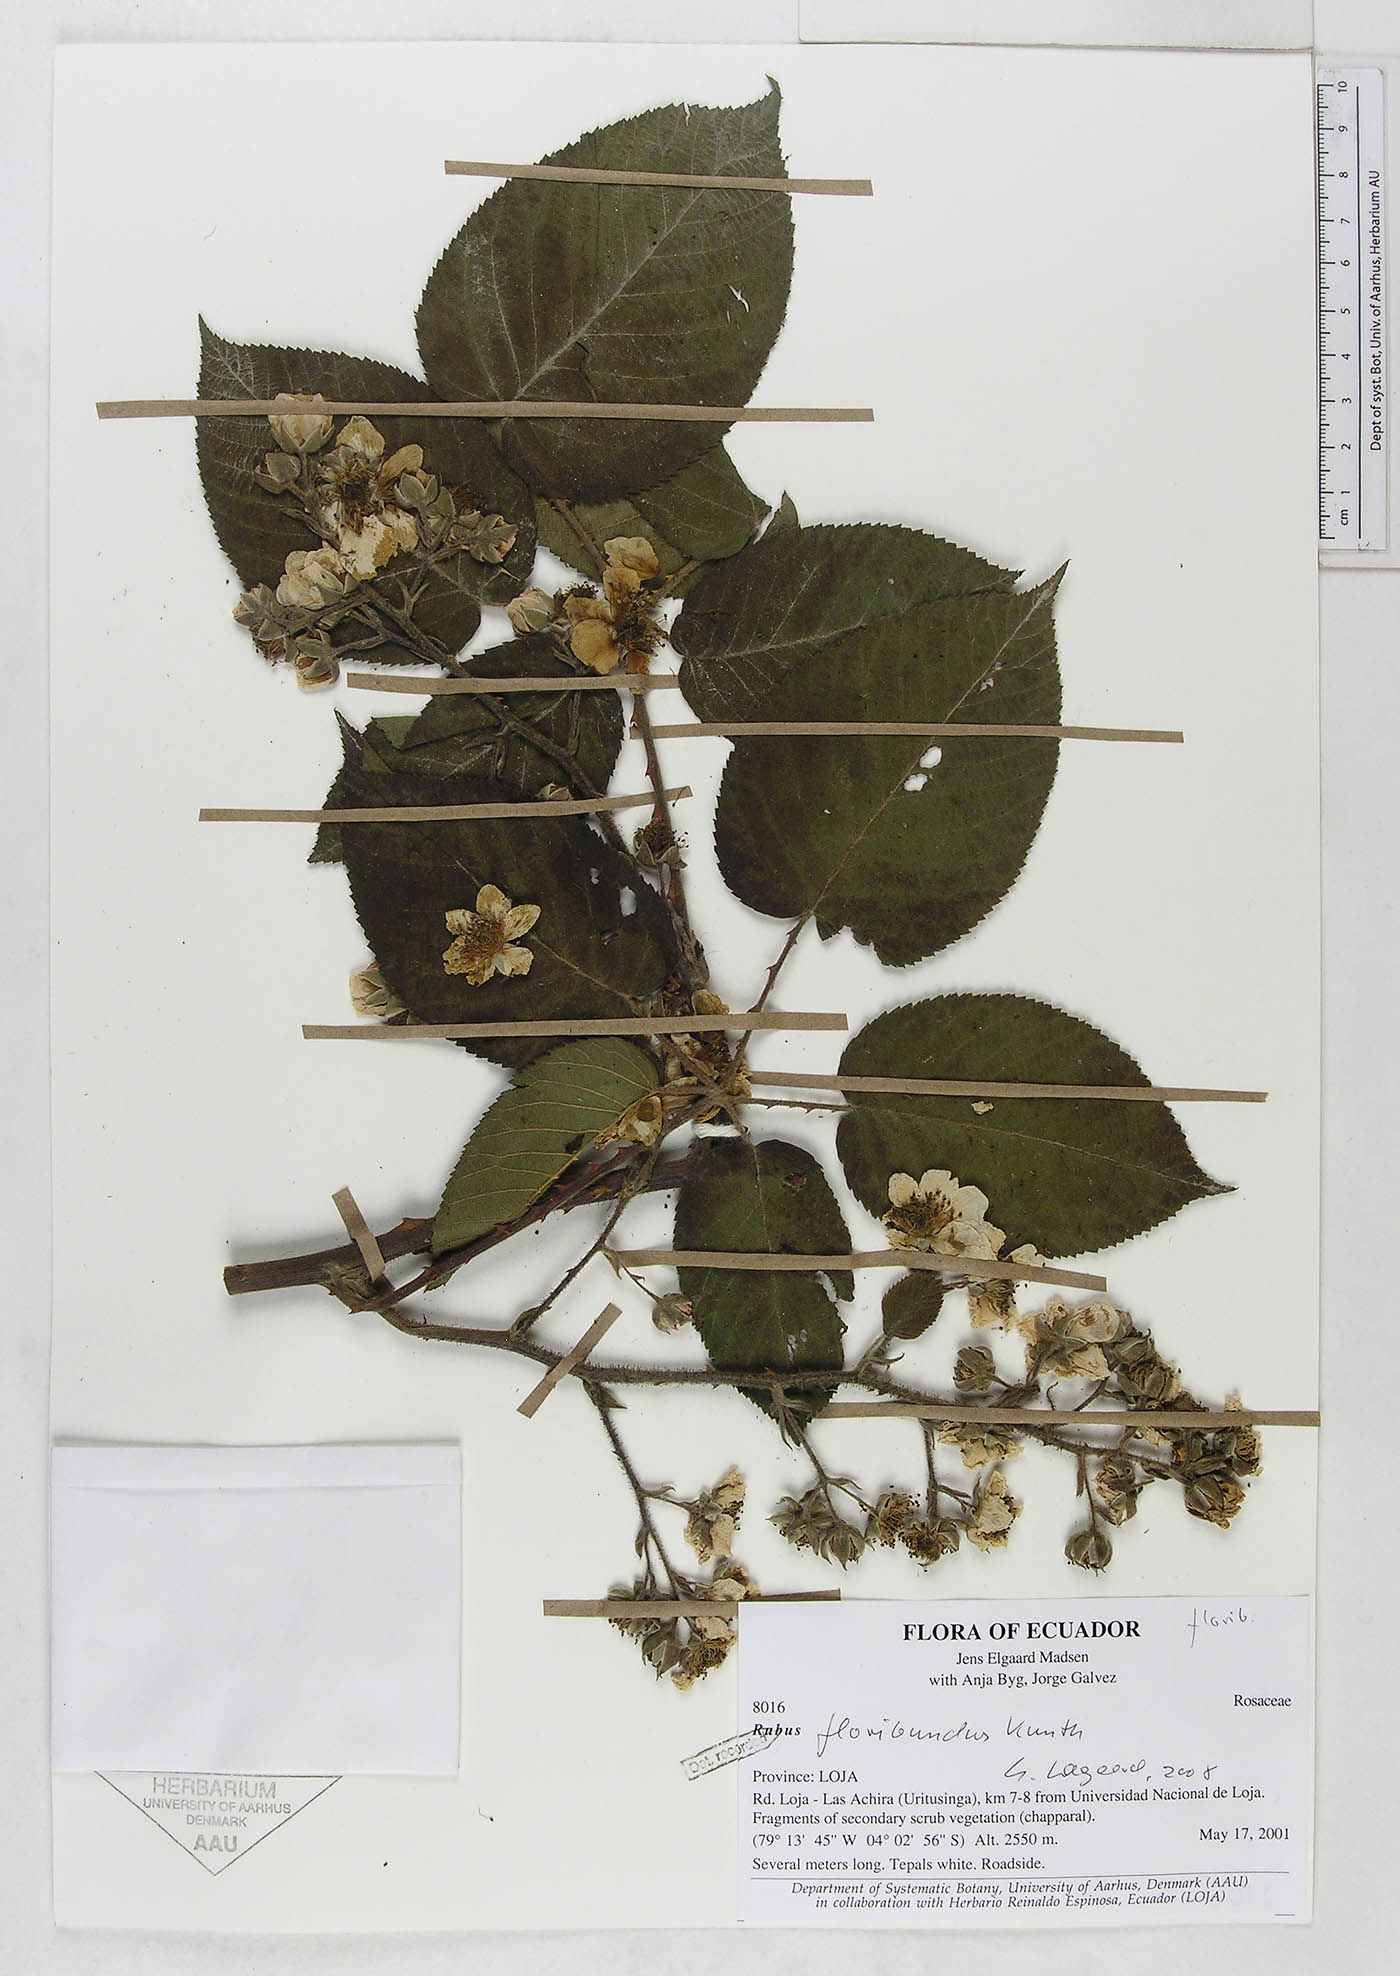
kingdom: Plantae
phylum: Tracheophyta
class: Magnoliopsida
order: Rosales
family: Rosaceae
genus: Rubus
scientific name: Rubus floribundus
